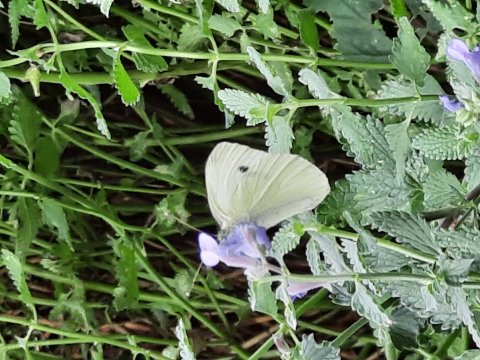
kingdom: Animalia
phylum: Arthropoda
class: Insecta
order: Lepidoptera
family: Pieridae
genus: Pieris
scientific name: Pieris rapae
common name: Cabbage White
